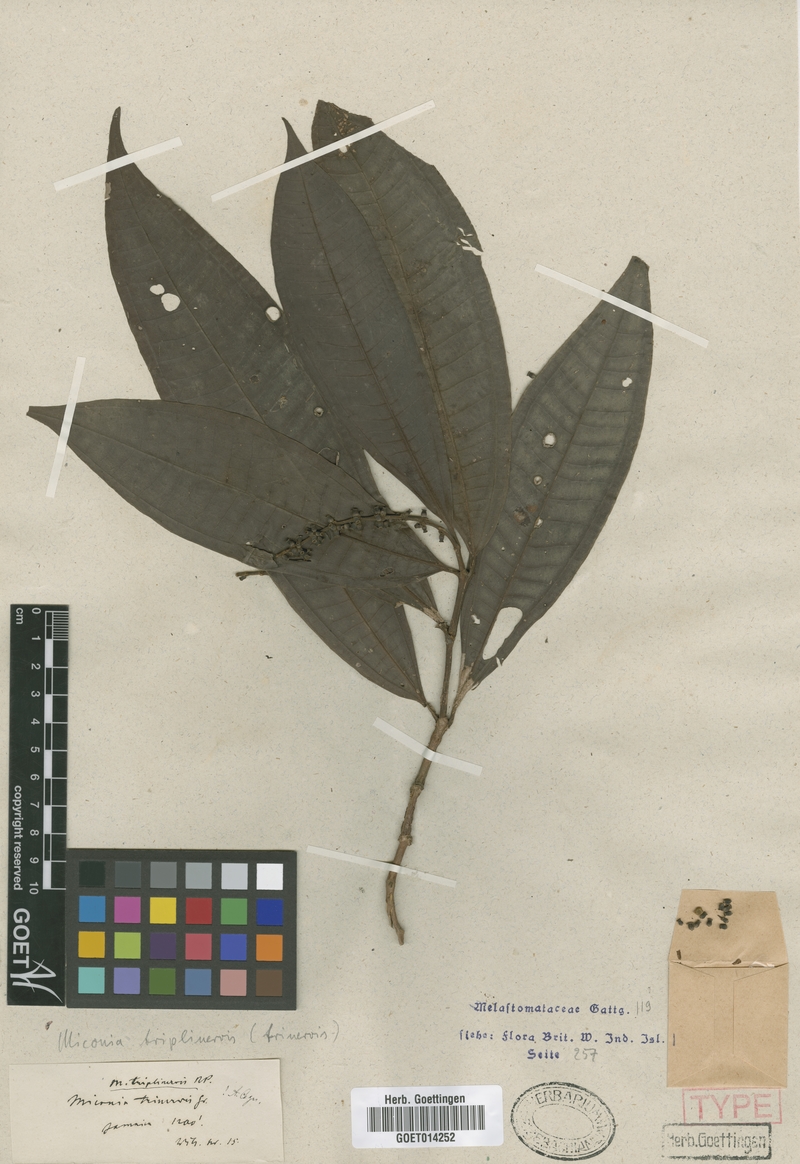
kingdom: Plantae
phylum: Tracheophyta
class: Magnoliopsida
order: Myrtales
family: Melastomataceae
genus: Miconia
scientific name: Miconia triplinervis
